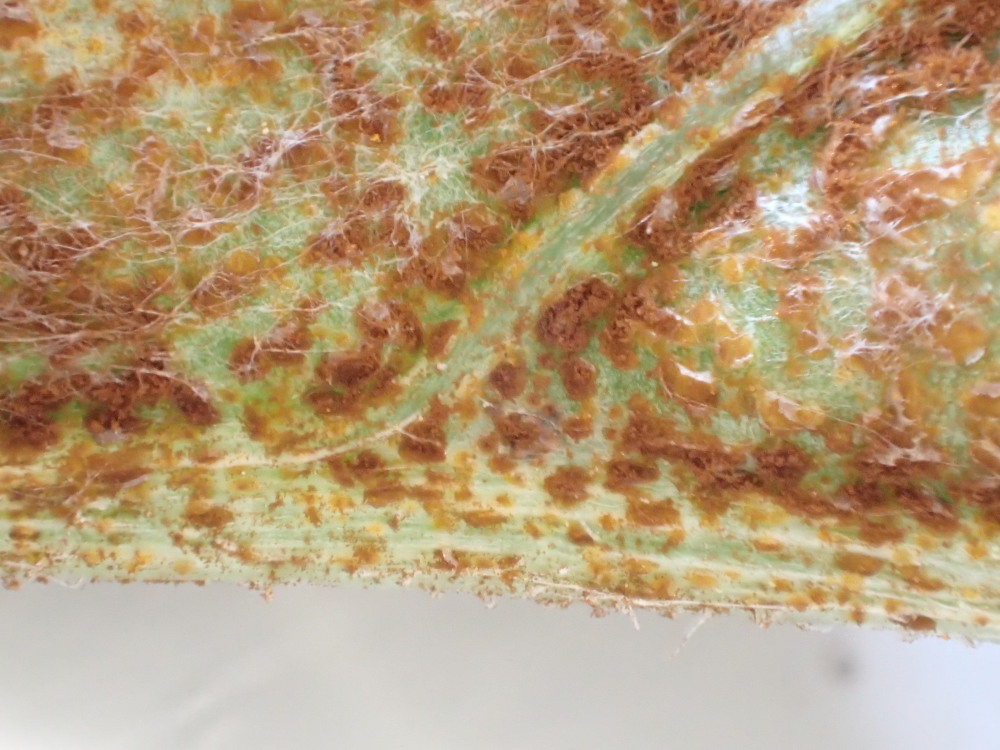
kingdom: Fungi
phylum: Basidiomycota
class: Pucciniomycetes
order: Pucciniales
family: Pucciniaceae
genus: Puccinia
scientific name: Puccinia suaveolens
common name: tidsel-tvecellerust
